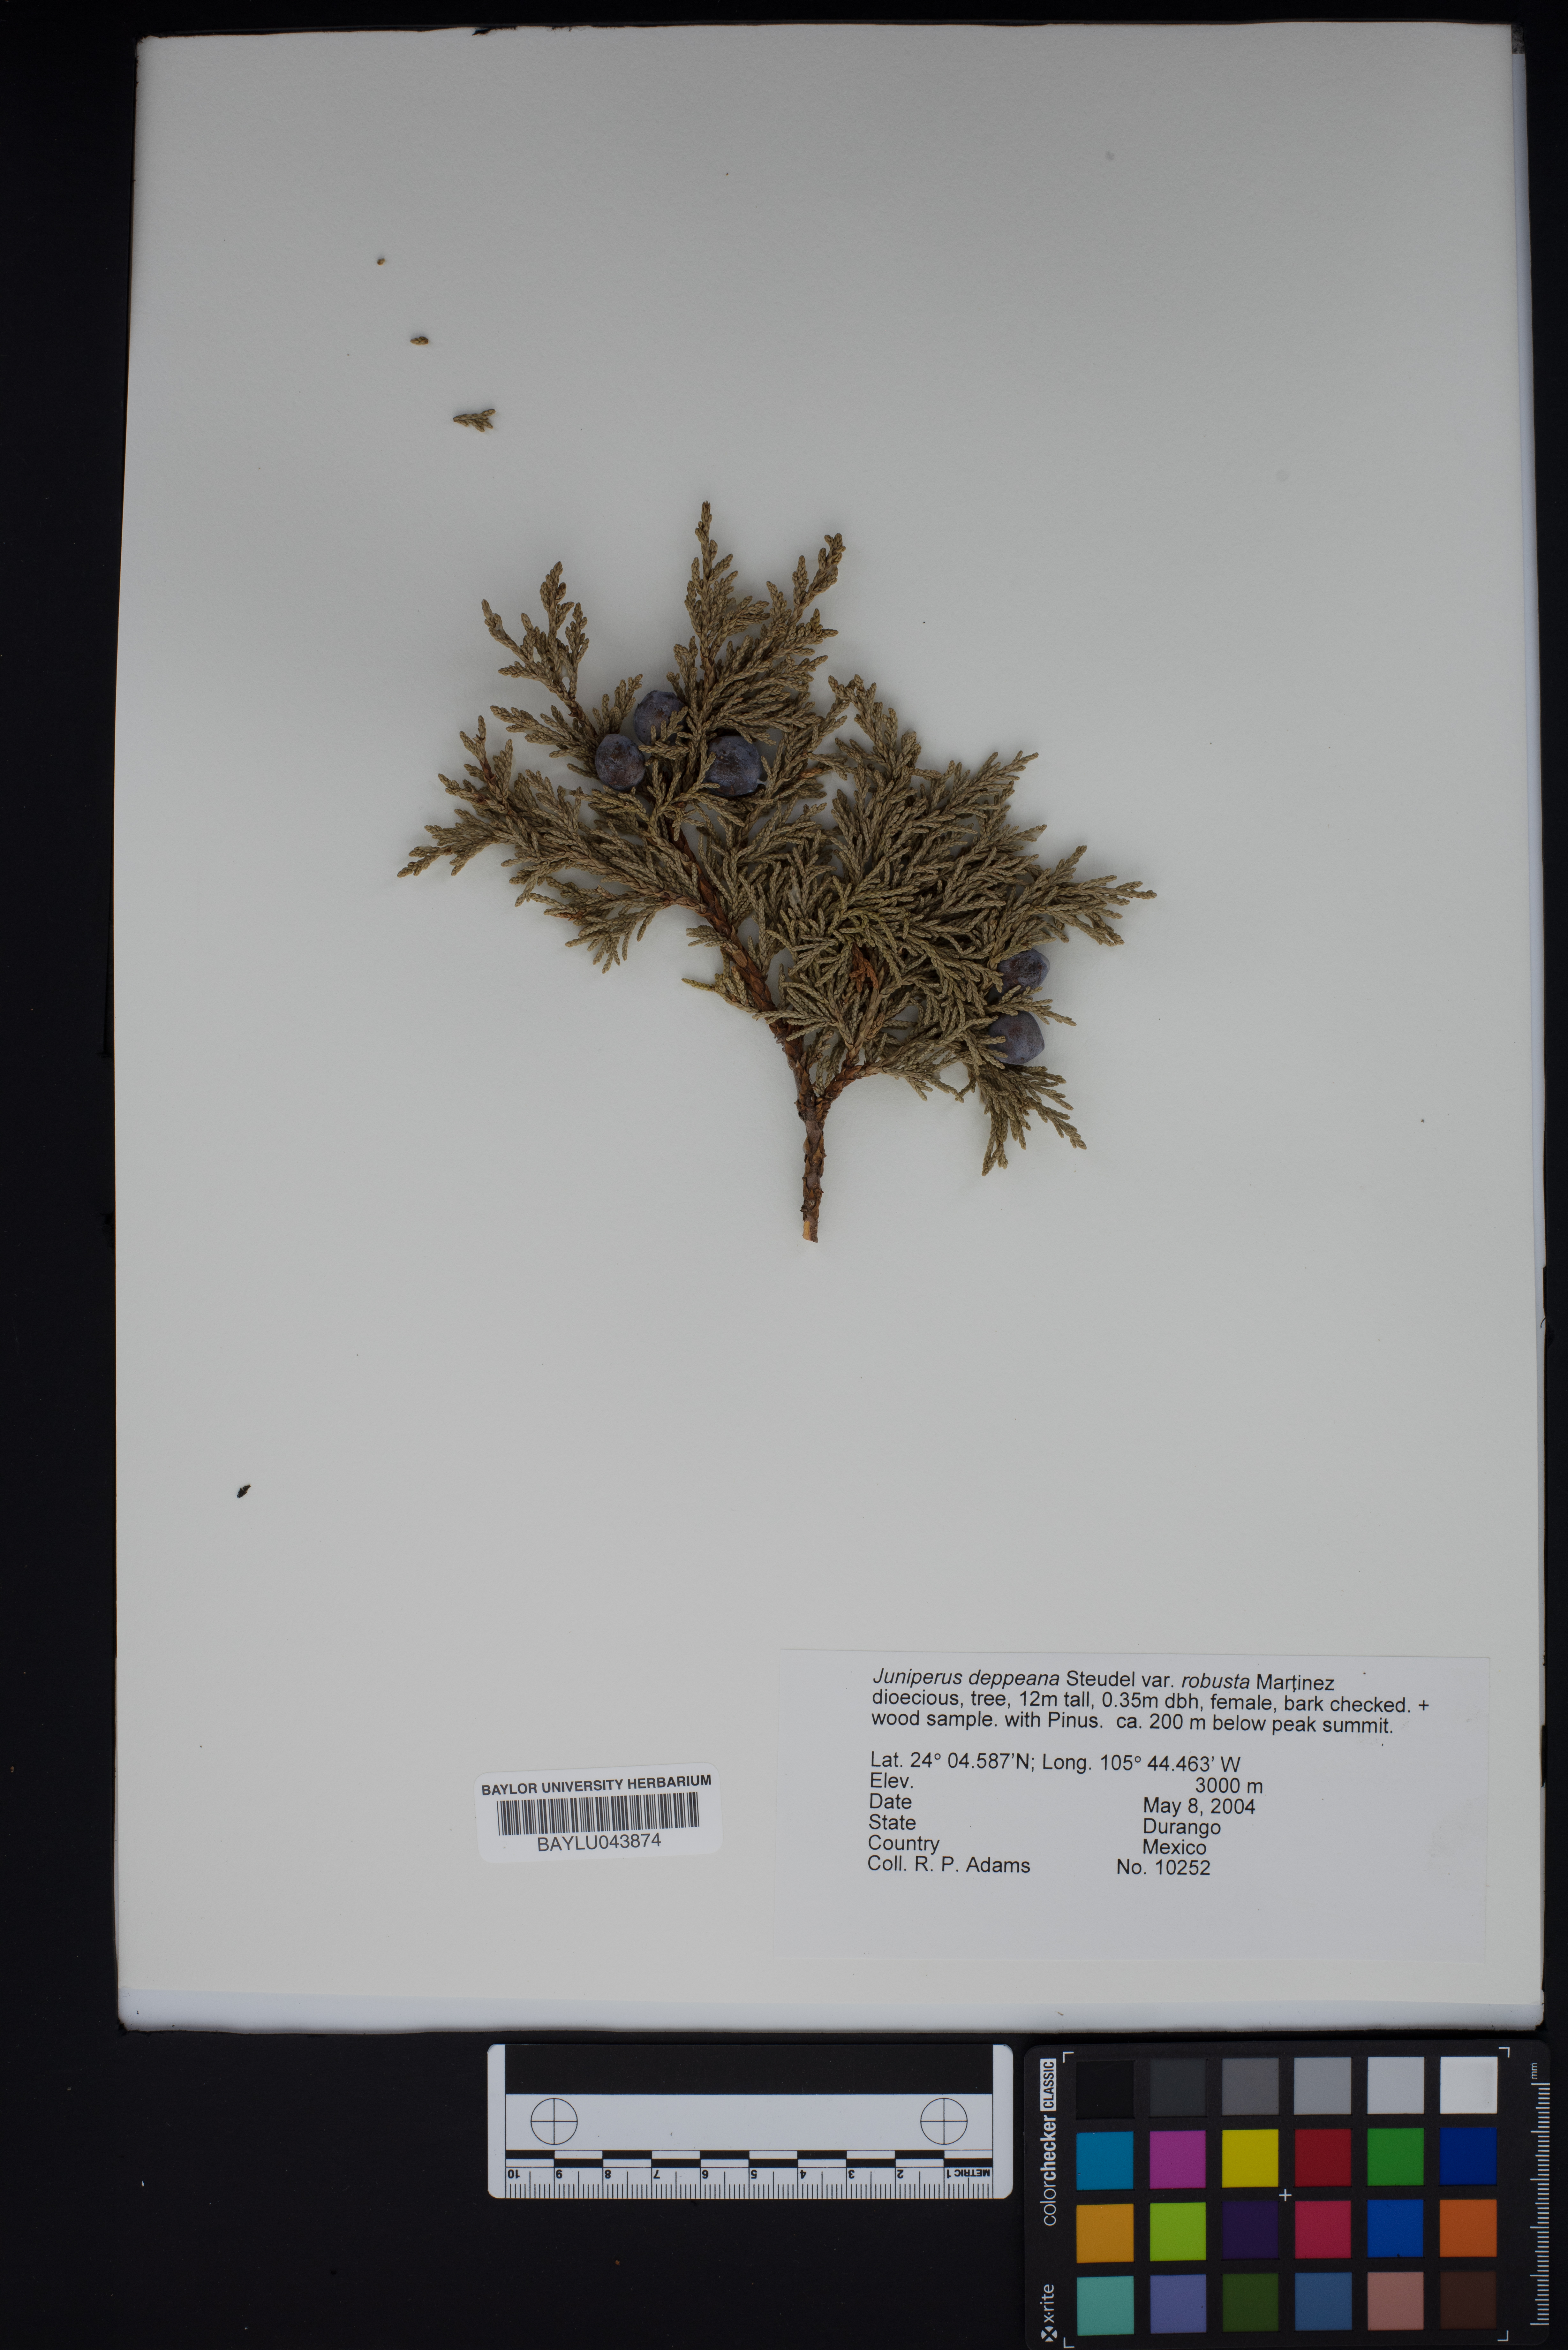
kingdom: Plantae
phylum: Tracheophyta
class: Pinopsida
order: Pinales
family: Cupressaceae
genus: Juniperus
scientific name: Juniperus deppeana
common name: Alligator juniper
